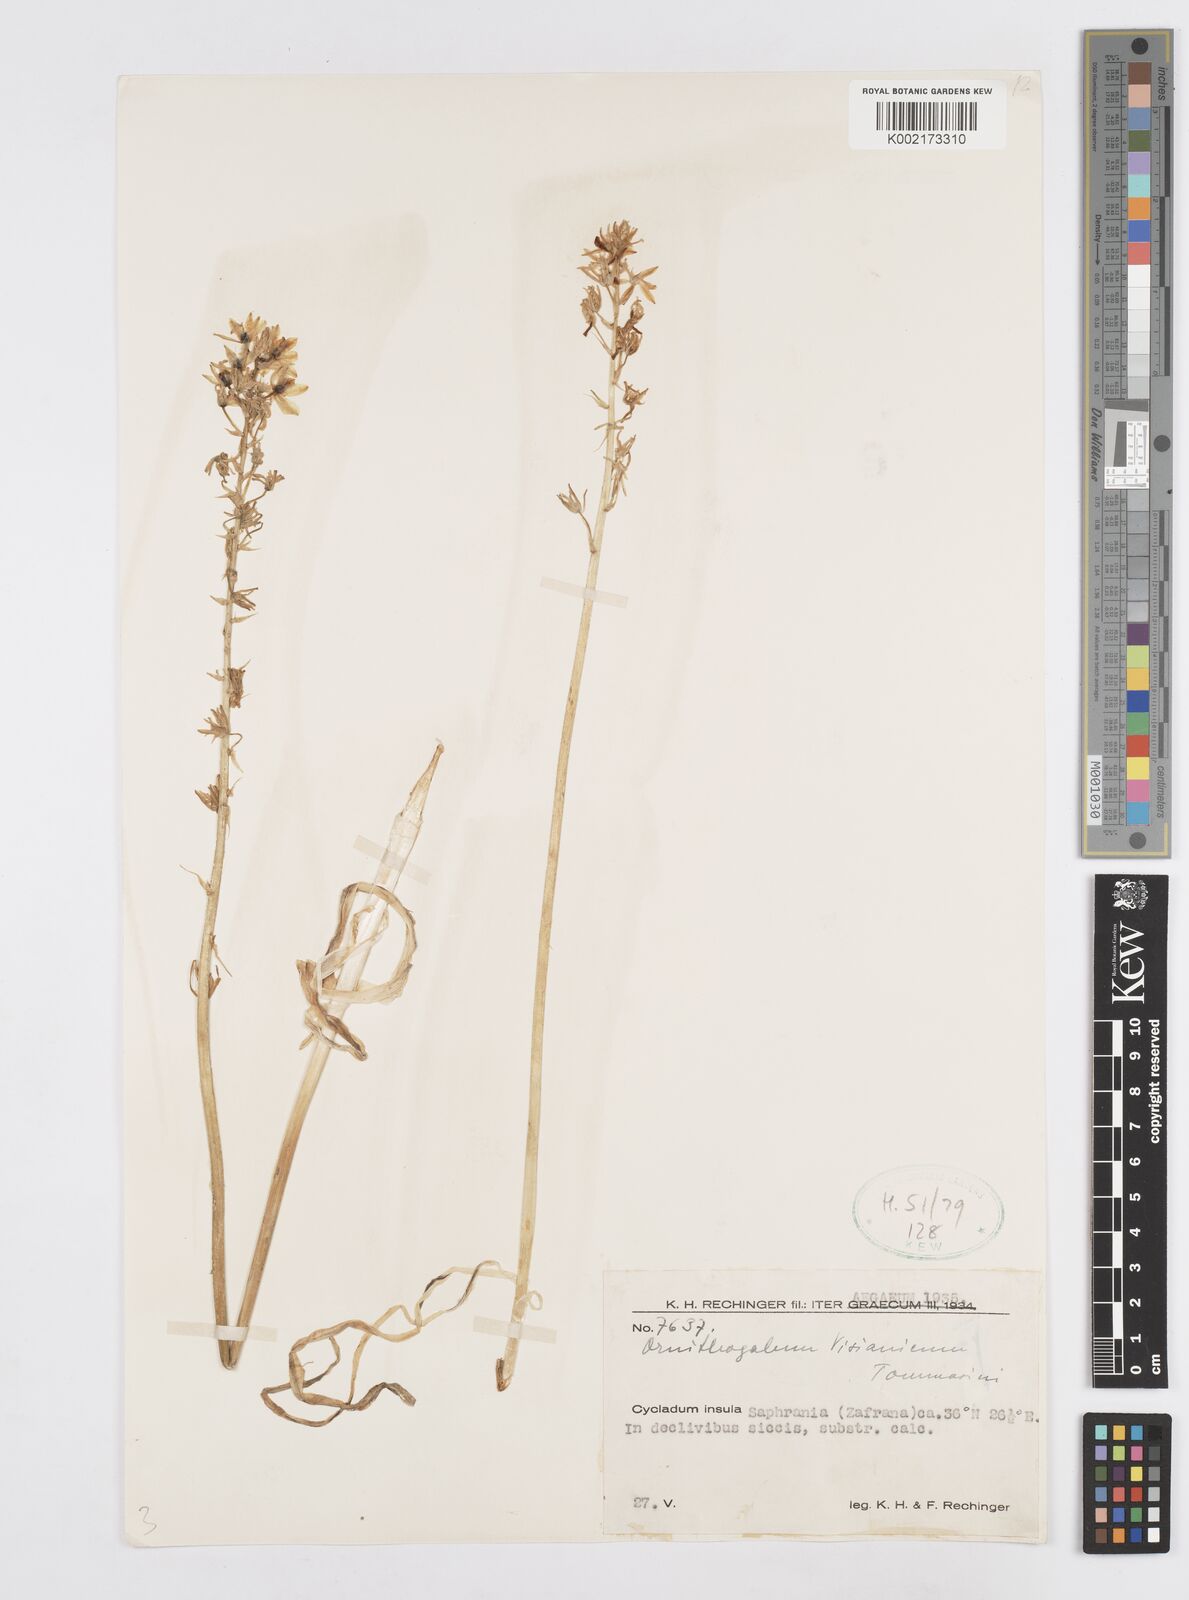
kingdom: Plantae
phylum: Tracheophyta
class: Liliopsida
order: Asparagales
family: Asparagaceae
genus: Ornithogalum
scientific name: Ornithogalum visianicum
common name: Visiani's star of bethlehem
